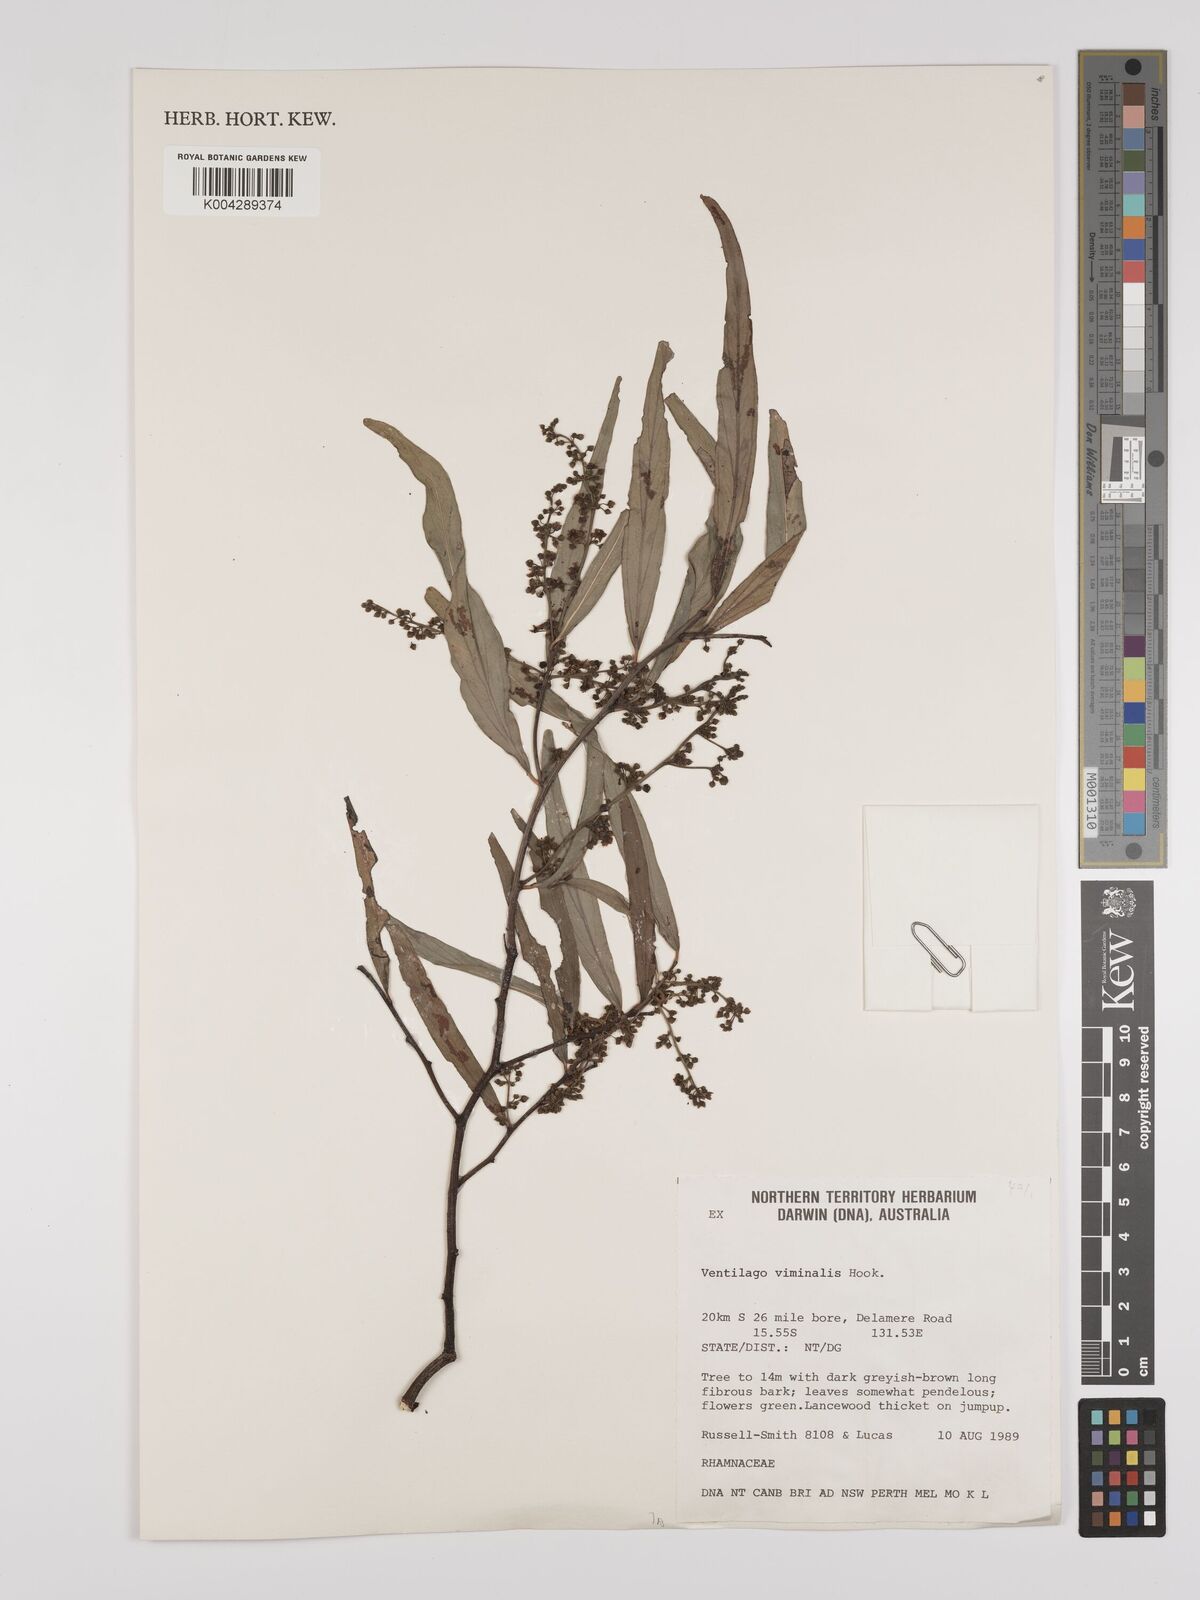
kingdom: Plantae
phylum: Tracheophyta
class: Magnoliopsida
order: Rosales
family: Rhamnaceae
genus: Ventilago
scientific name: Ventilago viminalis
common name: Medicine-bark
